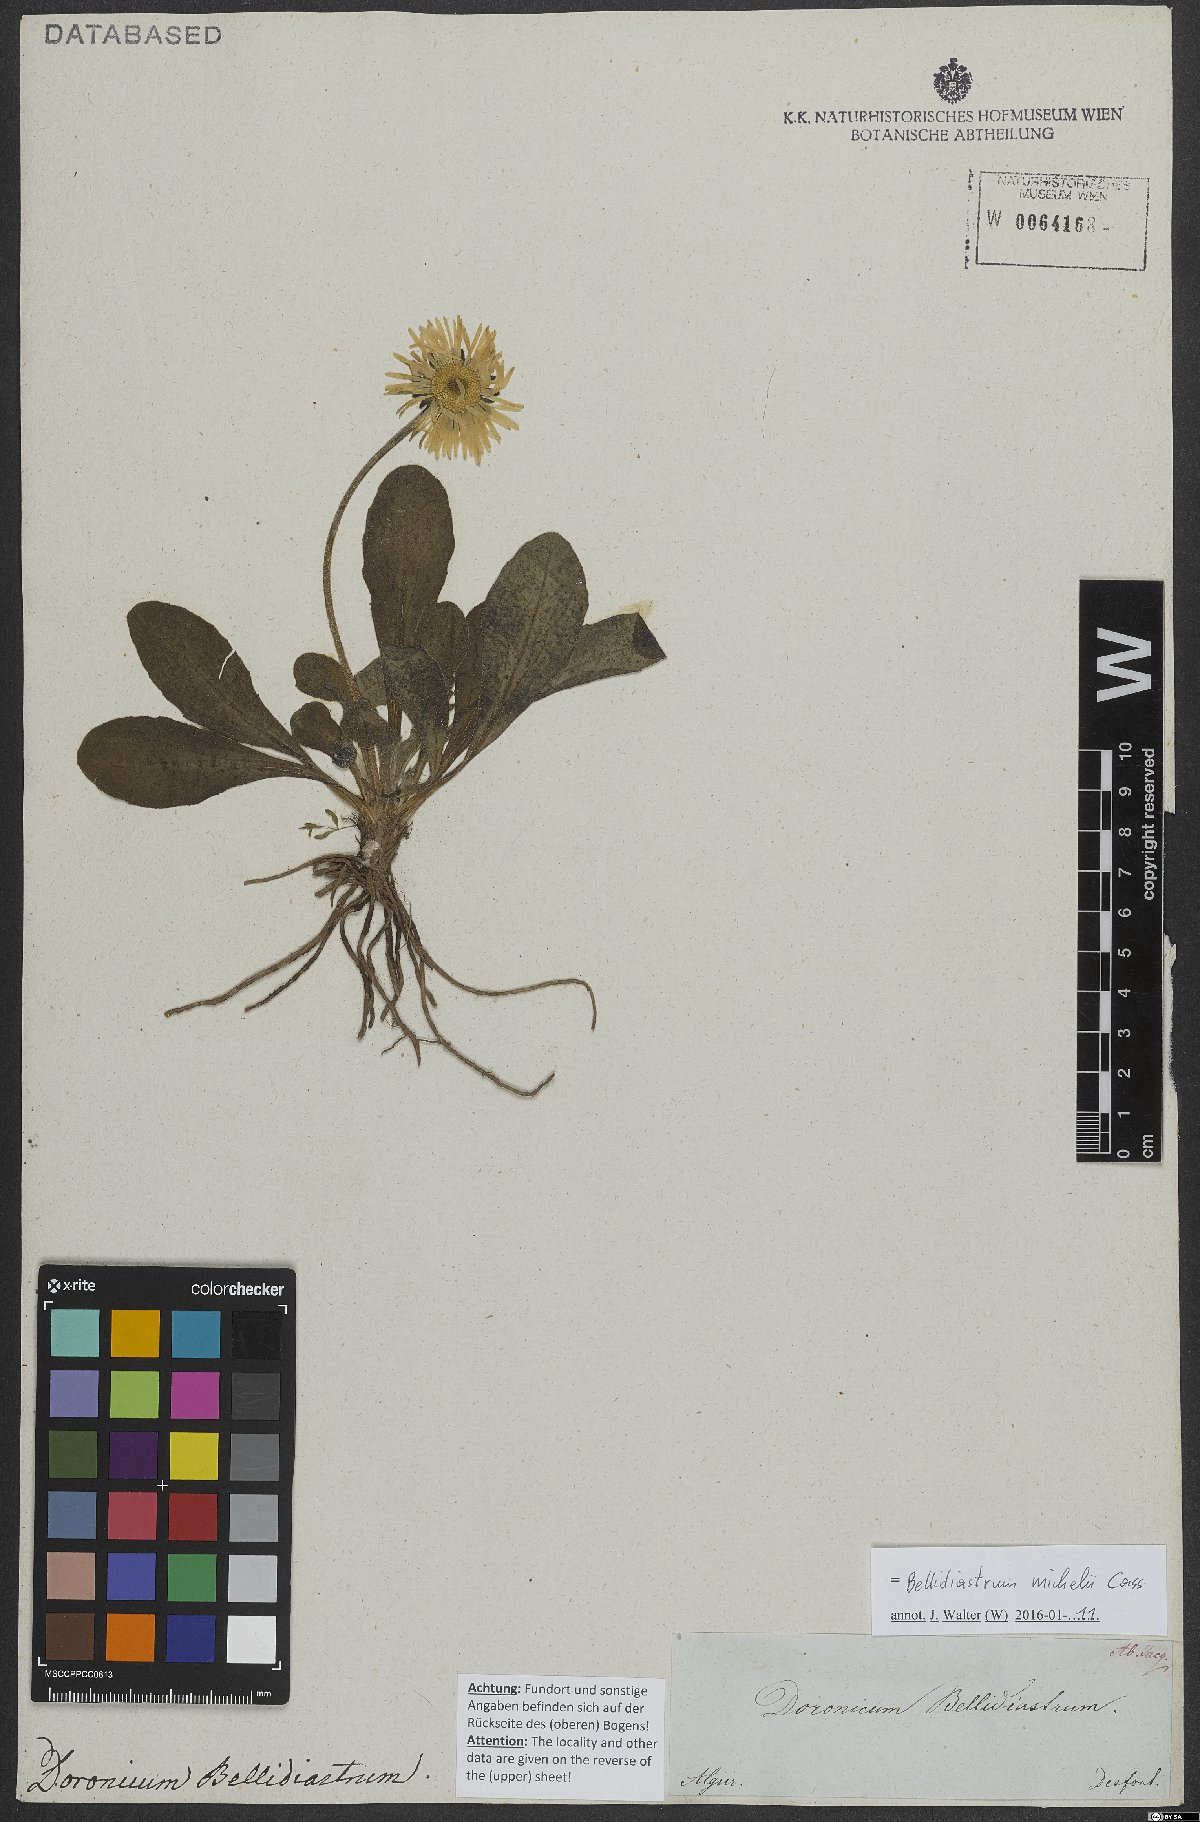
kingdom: Plantae
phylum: Tracheophyta
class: Magnoliopsida
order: Asterales
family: Asteraceae
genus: Bellidiastrum
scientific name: Bellidiastrum michelii
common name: Daisy-star aster
